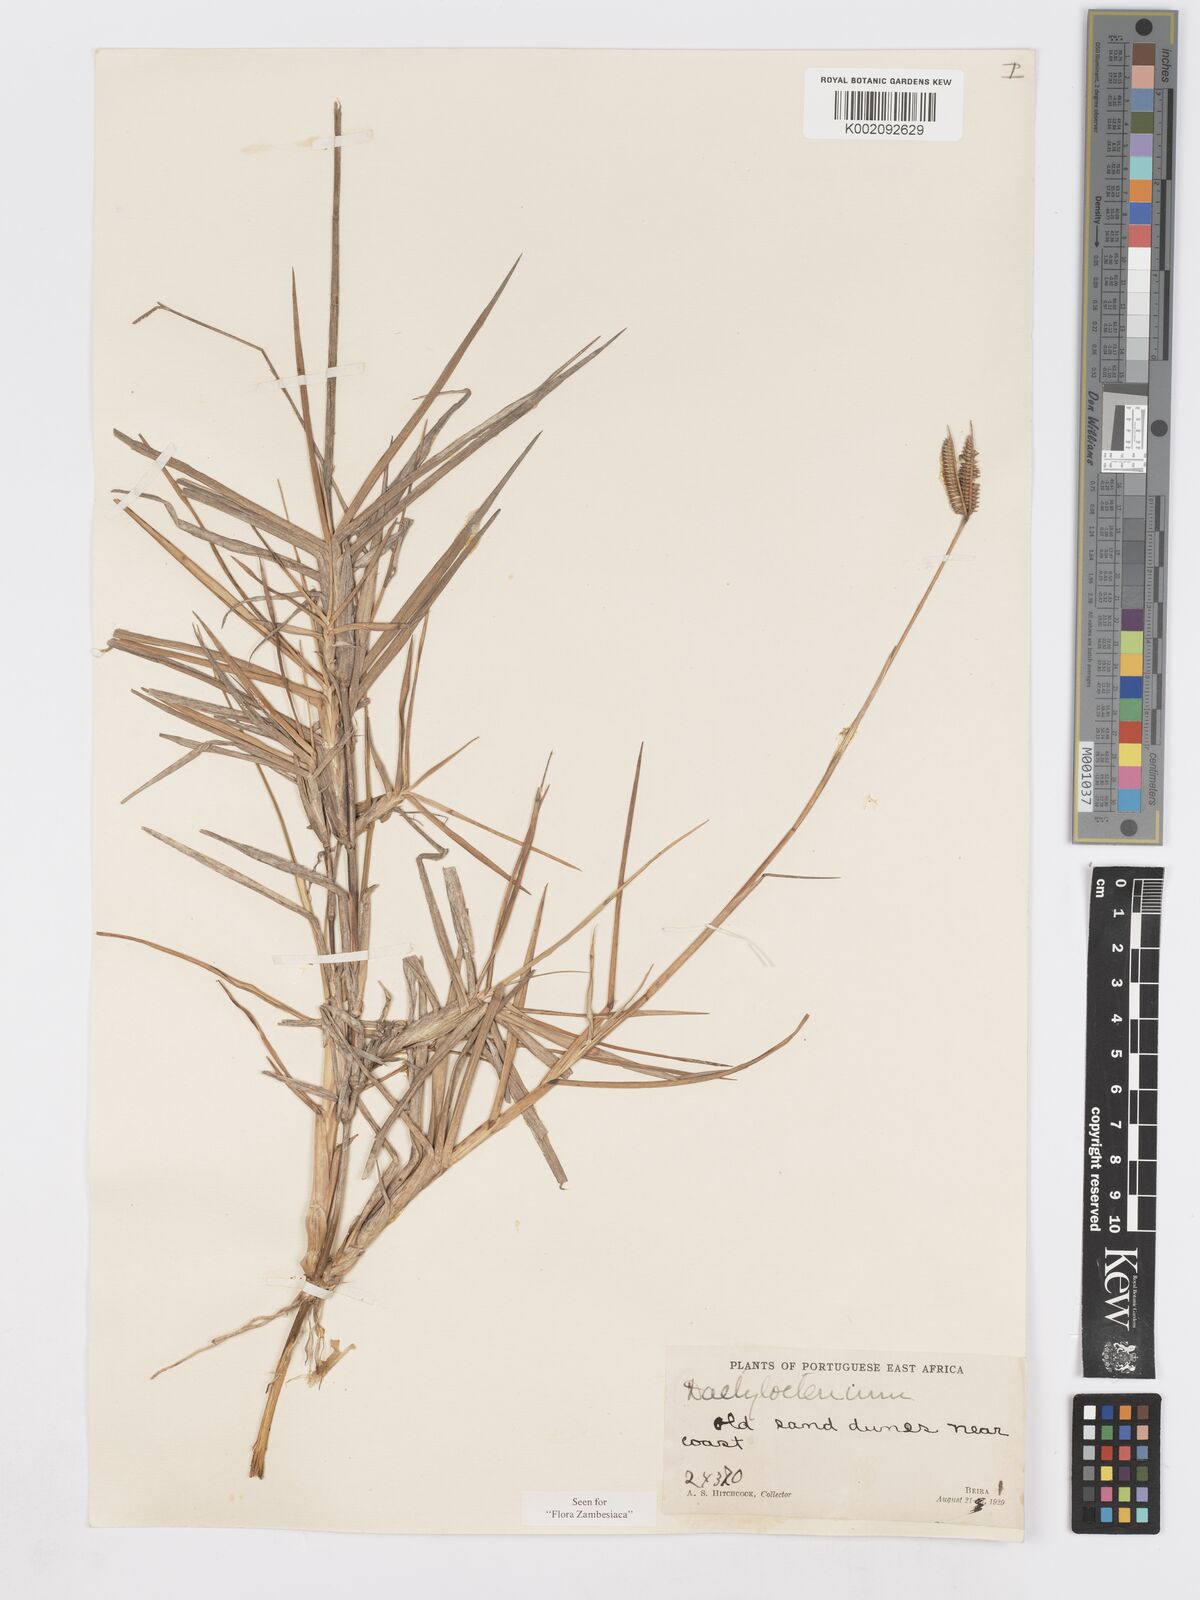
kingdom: Plantae
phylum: Tracheophyta
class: Liliopsida
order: Poales
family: Poaceae
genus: Dactyloctenium
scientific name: Dactyloctenium geminatum
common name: Crowsfoot grass
